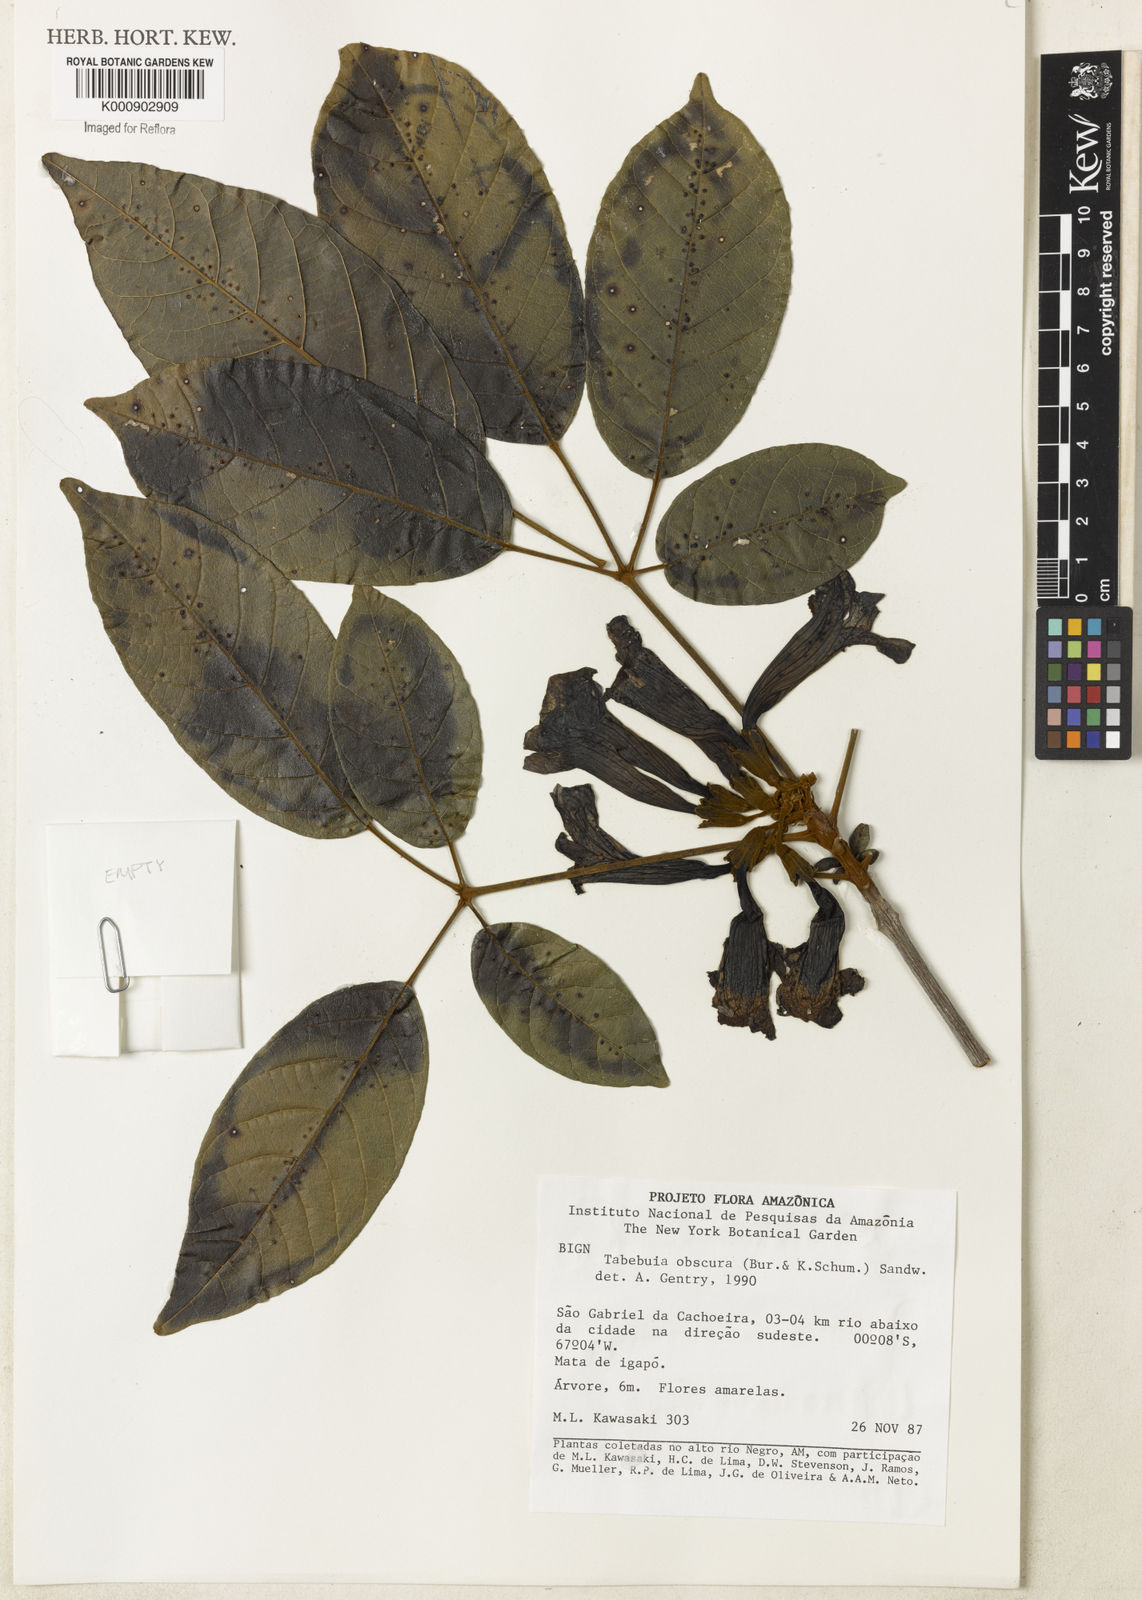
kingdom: Plantae
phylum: Tracheophyta
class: Magnoliopsida
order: Lamiales
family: Bignoniaceae
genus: Tabebuia
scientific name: Tabebuia insignis
